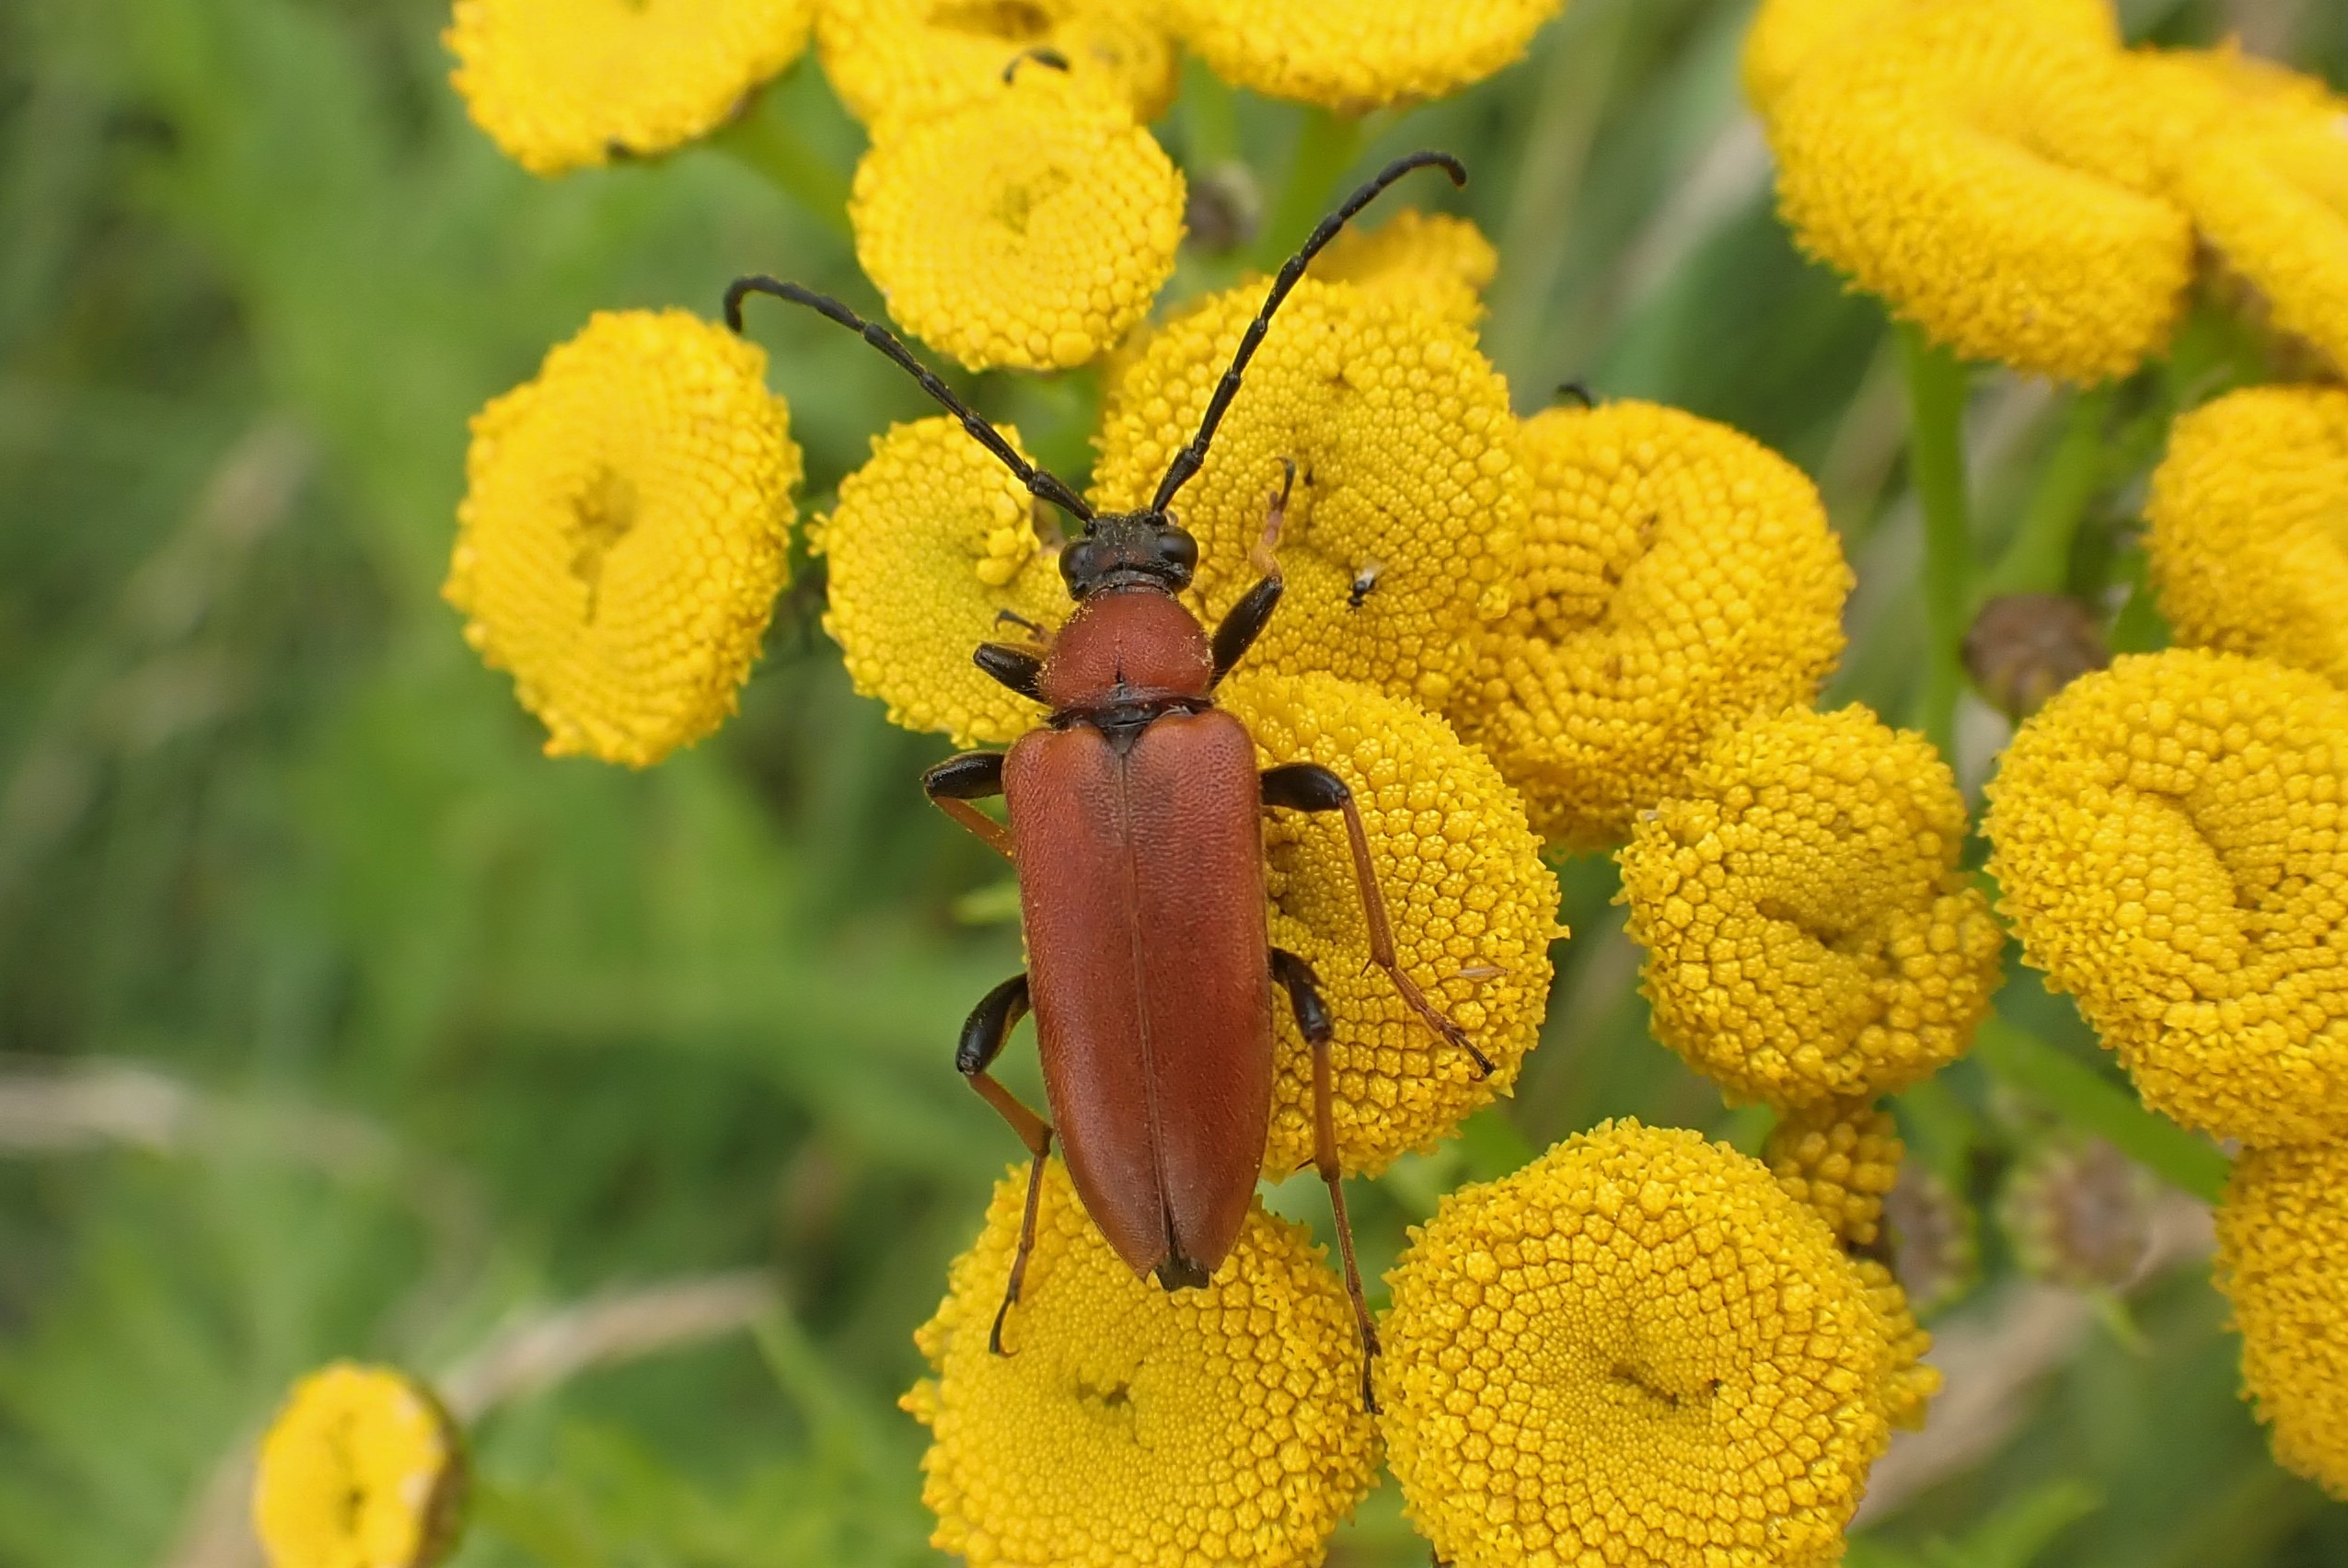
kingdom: Animalia
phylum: Arthropoda
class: Insecta
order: Coleoptera
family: Cerambycidae
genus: Stictoleptura
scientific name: Stictoleptura rubra
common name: Rød blomsterbuk
